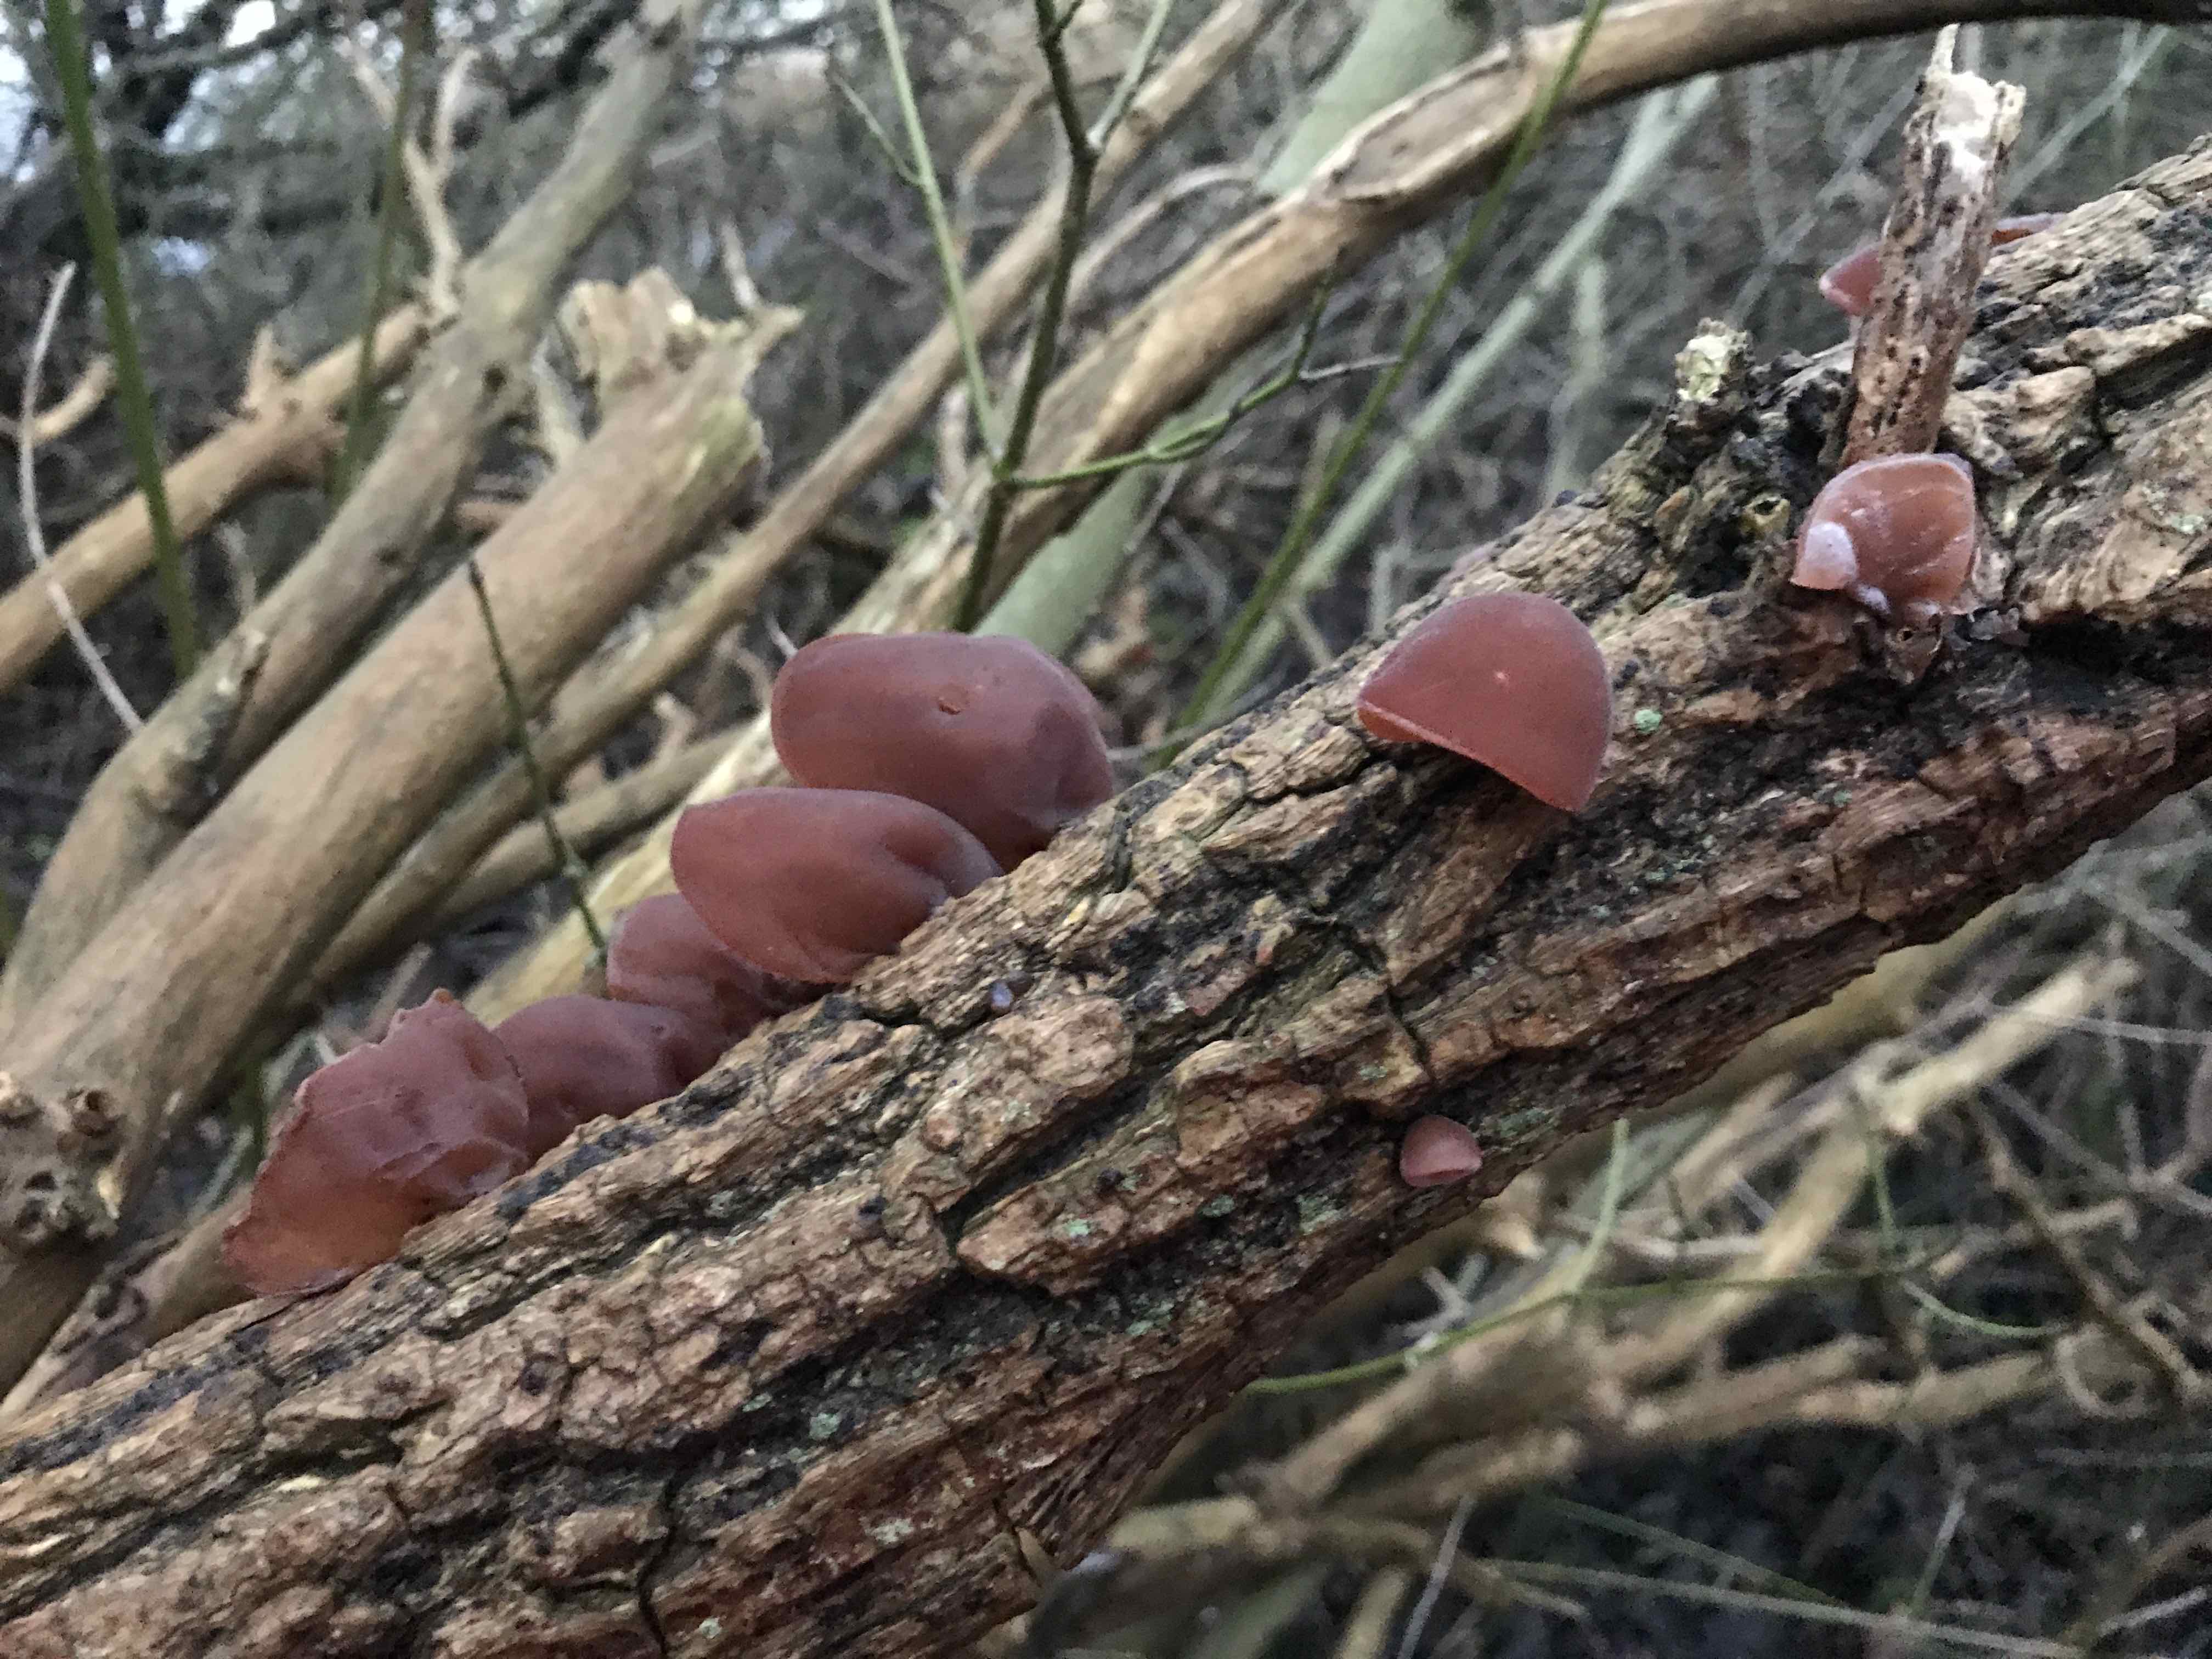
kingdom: Fungi
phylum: Basidiomycota
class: Agaricomycetes
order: Auriculariales
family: Auriculariaceae
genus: Auricularia
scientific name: Auricularia auricula-judae
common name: almindelig judasøre
